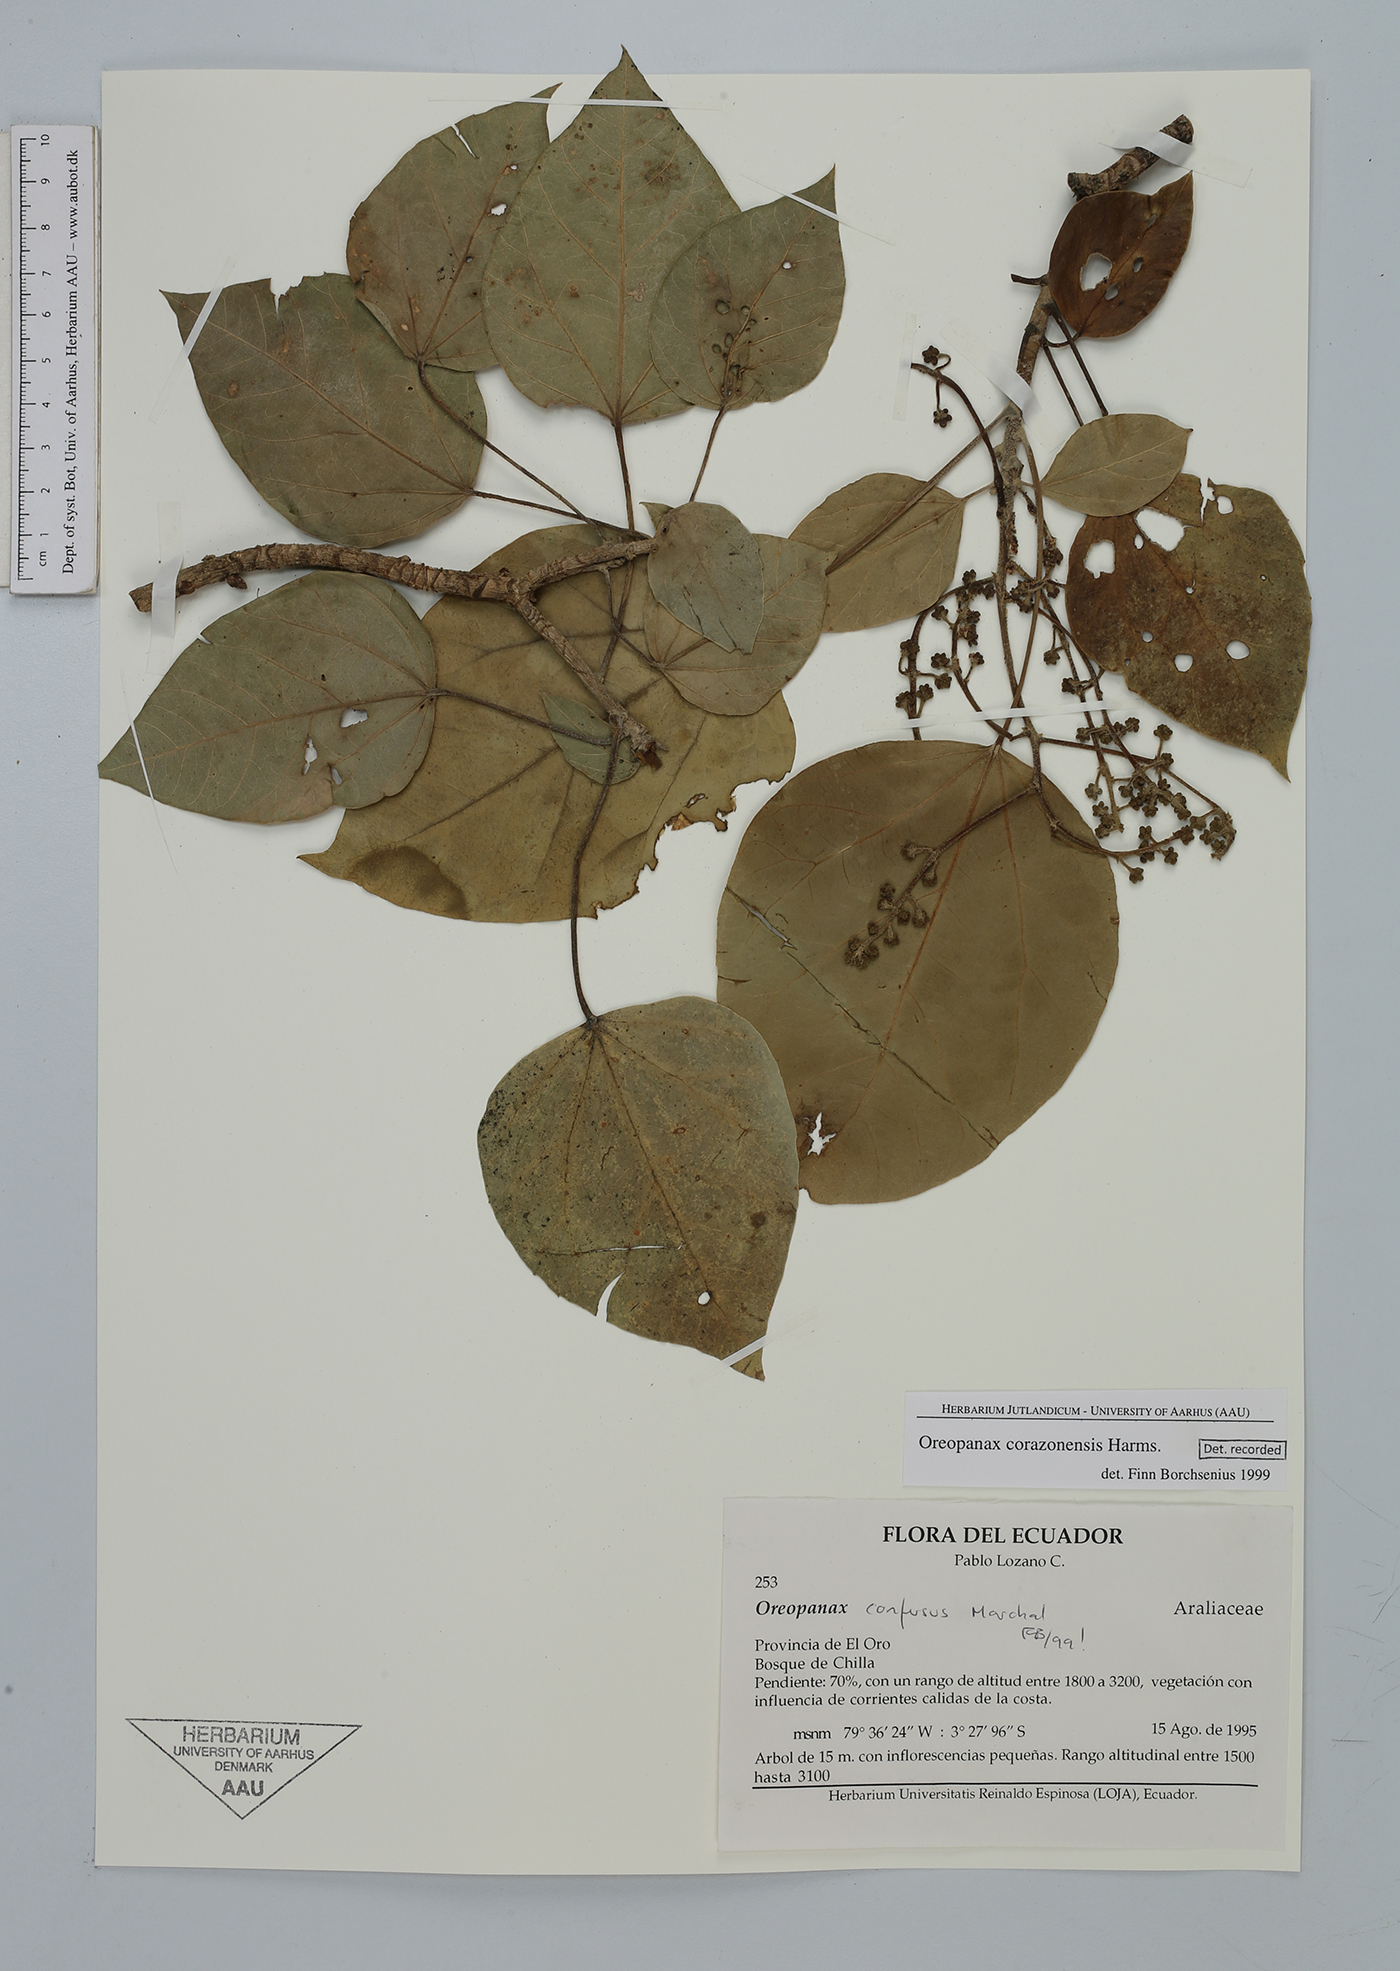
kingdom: Plantae
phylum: Tracheophyta
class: Magnoliopsida
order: Apiales
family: Araliaceae
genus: Oreopanax
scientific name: Oreopanax corazonensis
